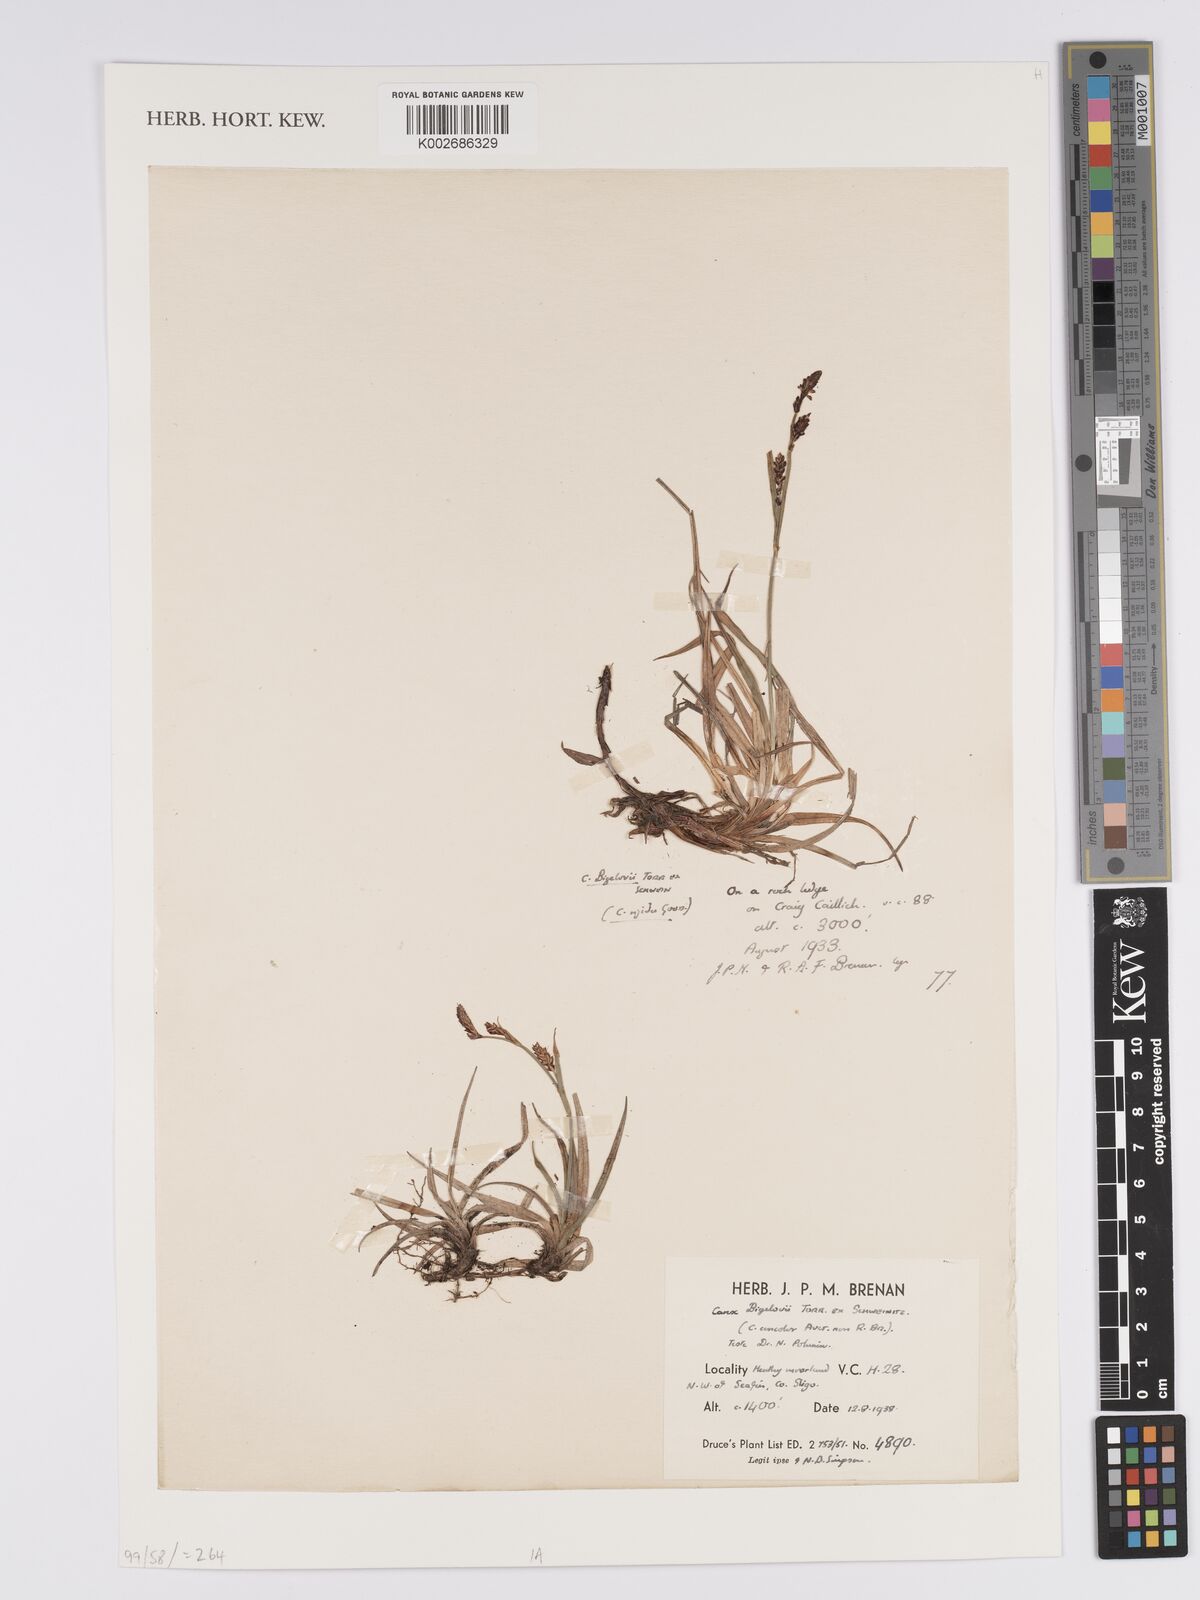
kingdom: Plantae
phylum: Tracheophyta
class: Liliopsida
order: Poales
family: Cyperaceae
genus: Carex
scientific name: Carex bigelowii
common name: Stiff sedge
